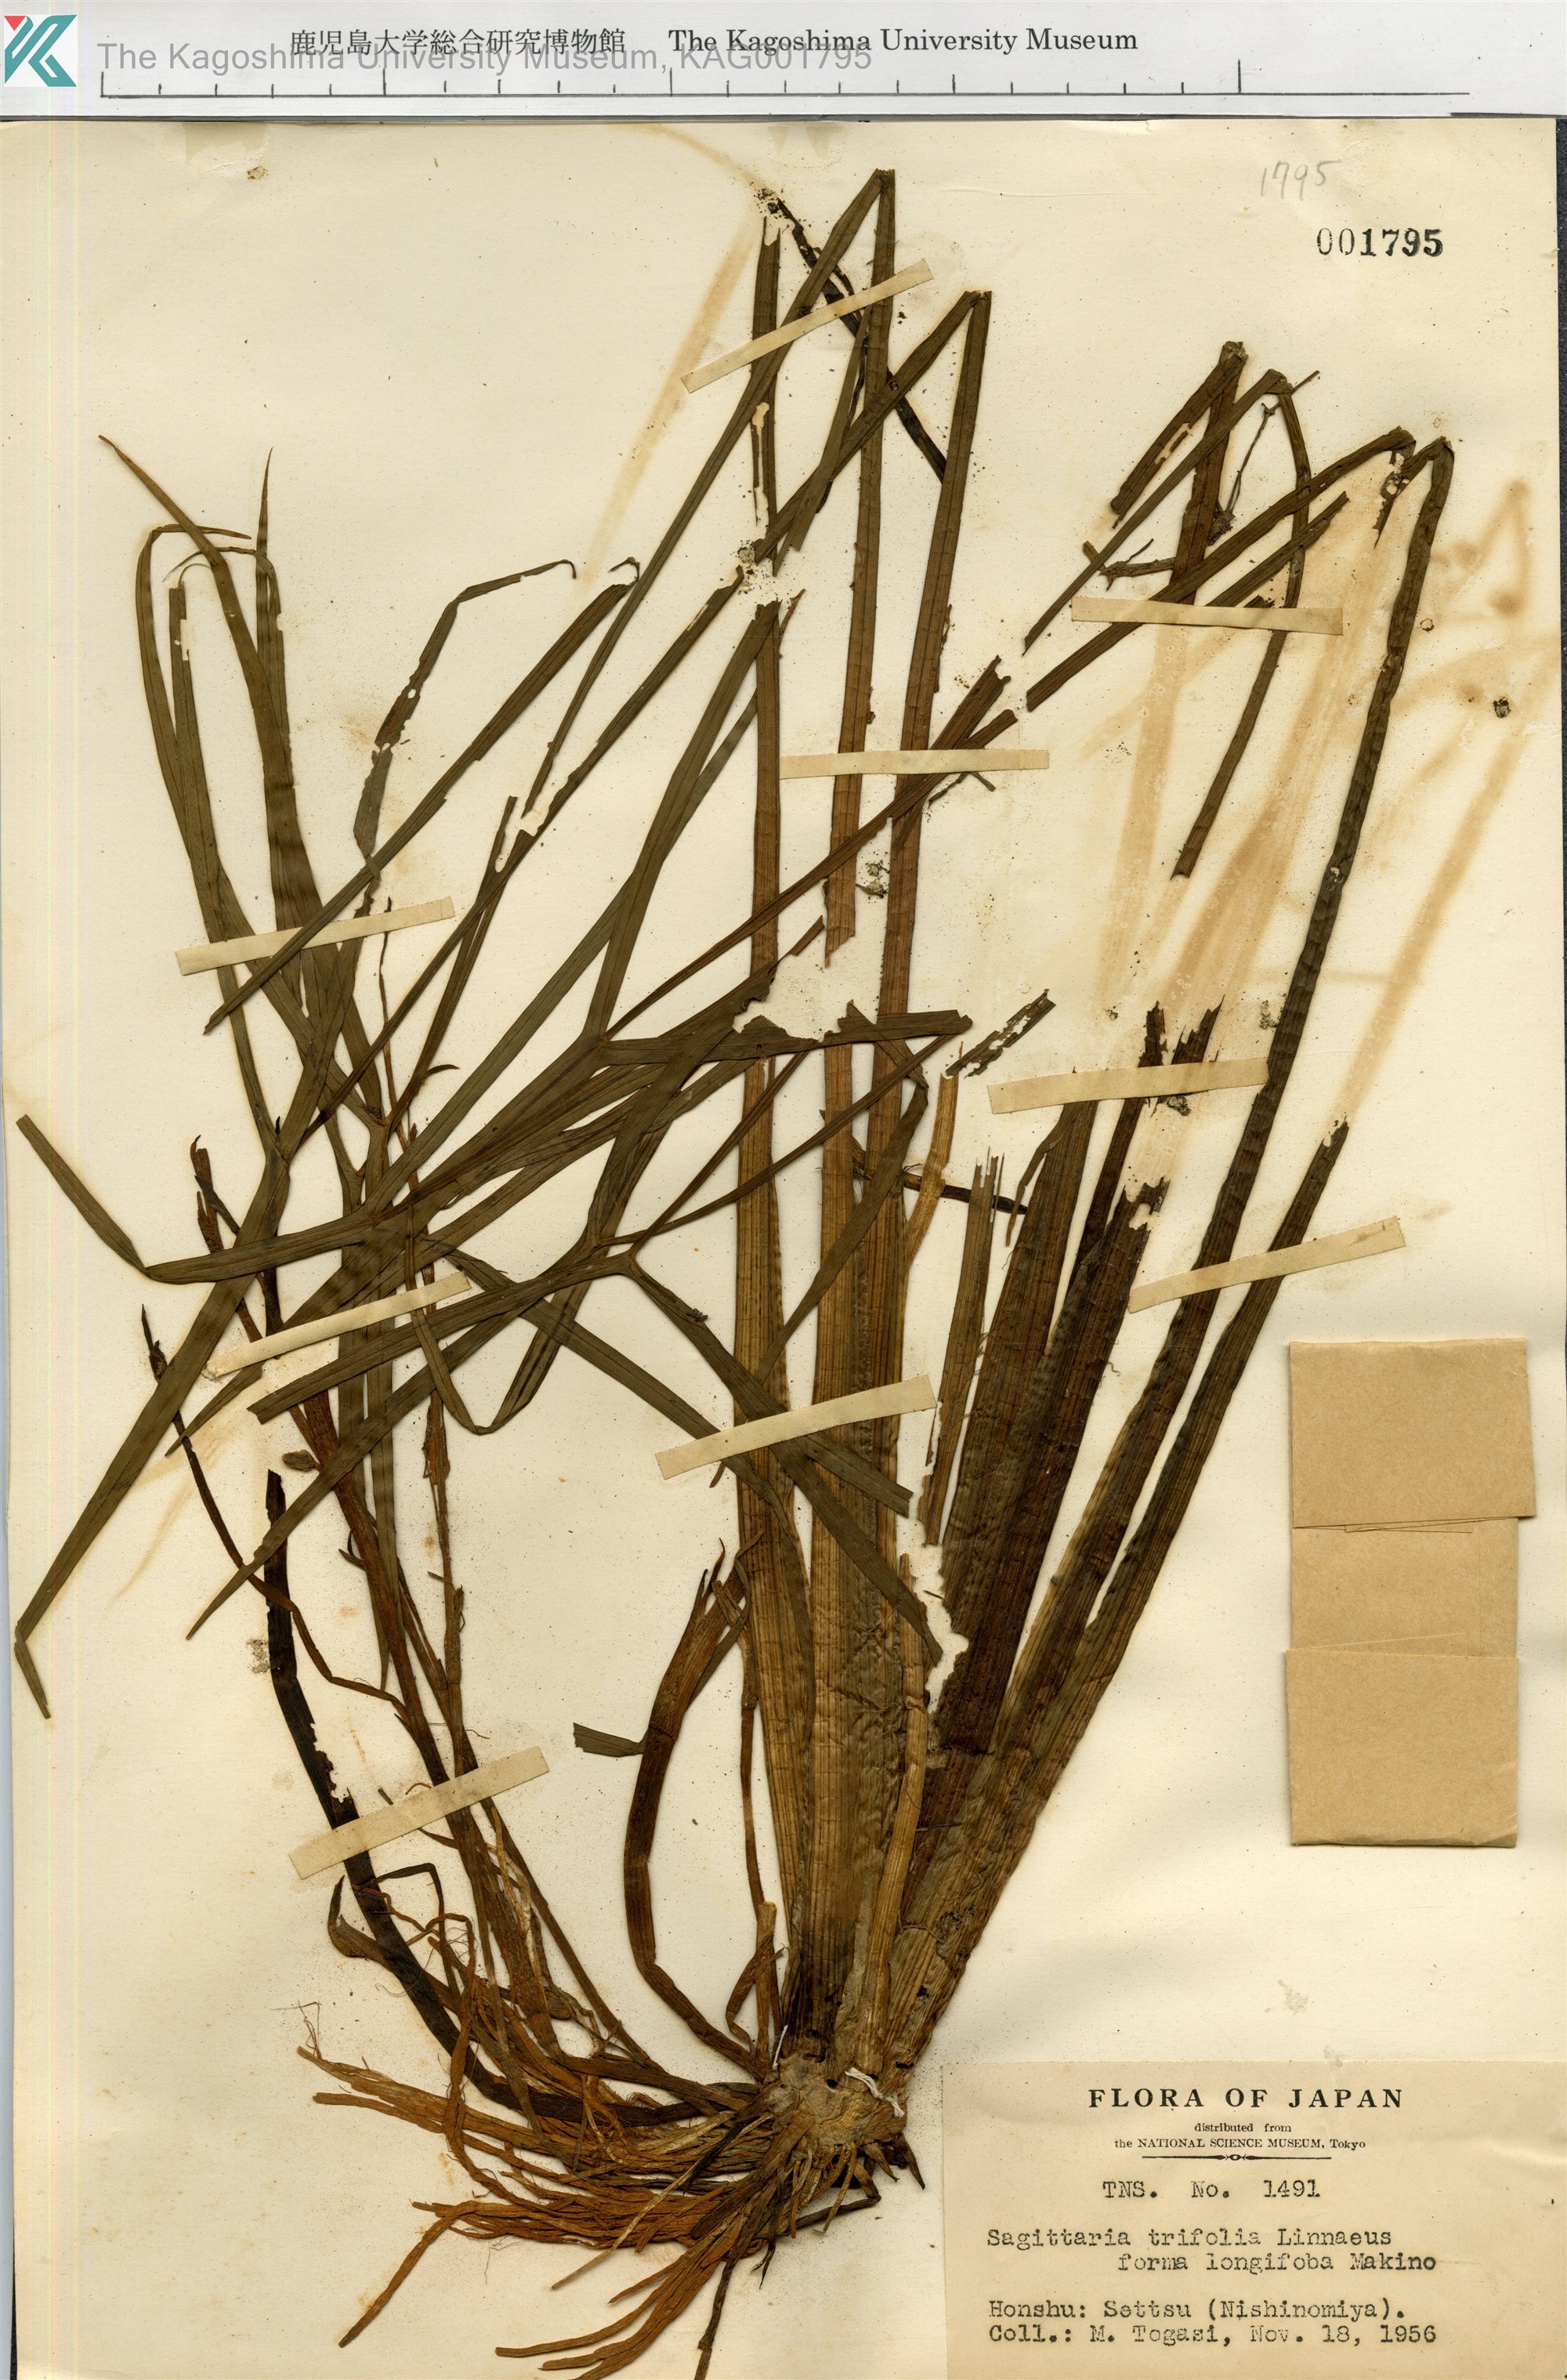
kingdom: Plantae
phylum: Tracheophyta
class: Liliopsida
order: Alismatales
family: Alismataceae
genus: Sagittaria
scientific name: Sagittaria trifolia
